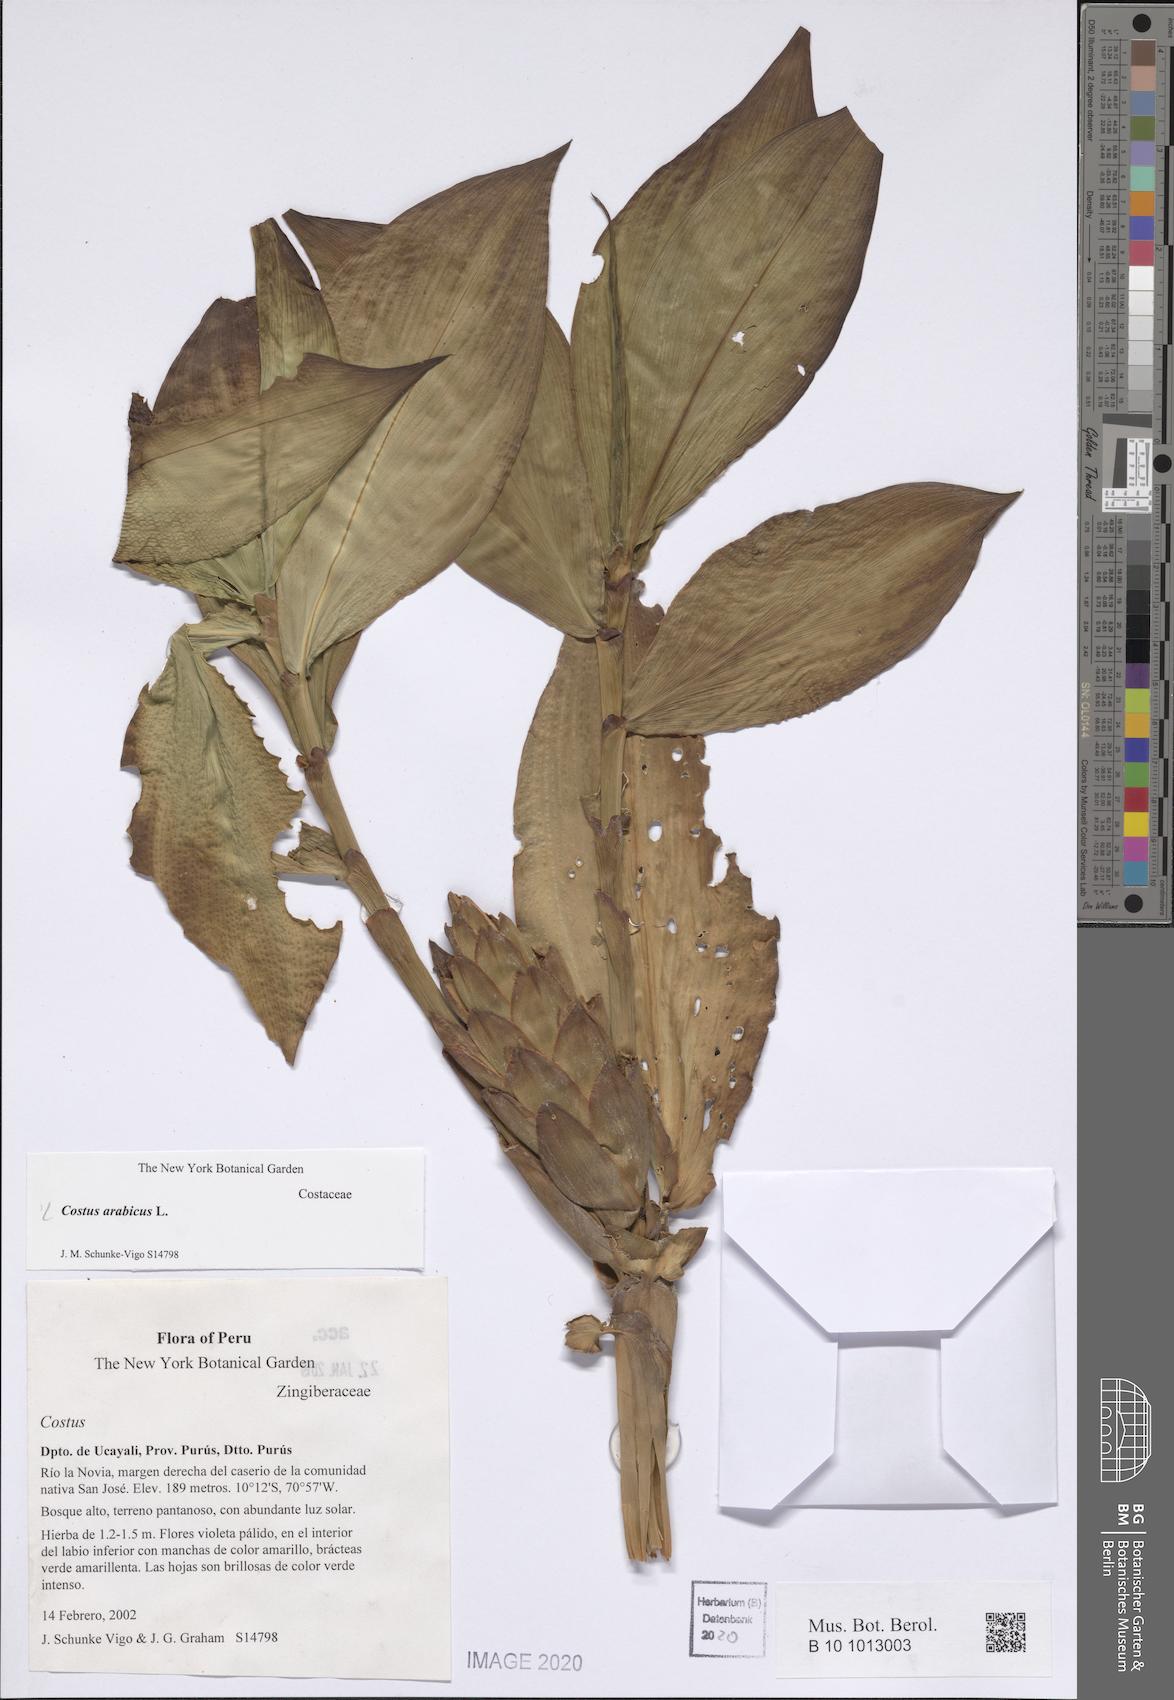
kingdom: Plantae
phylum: Tracheophyta
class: Liliopsida
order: Zingiberales
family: Costaceae
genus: Costus
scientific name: Costus arabicus
